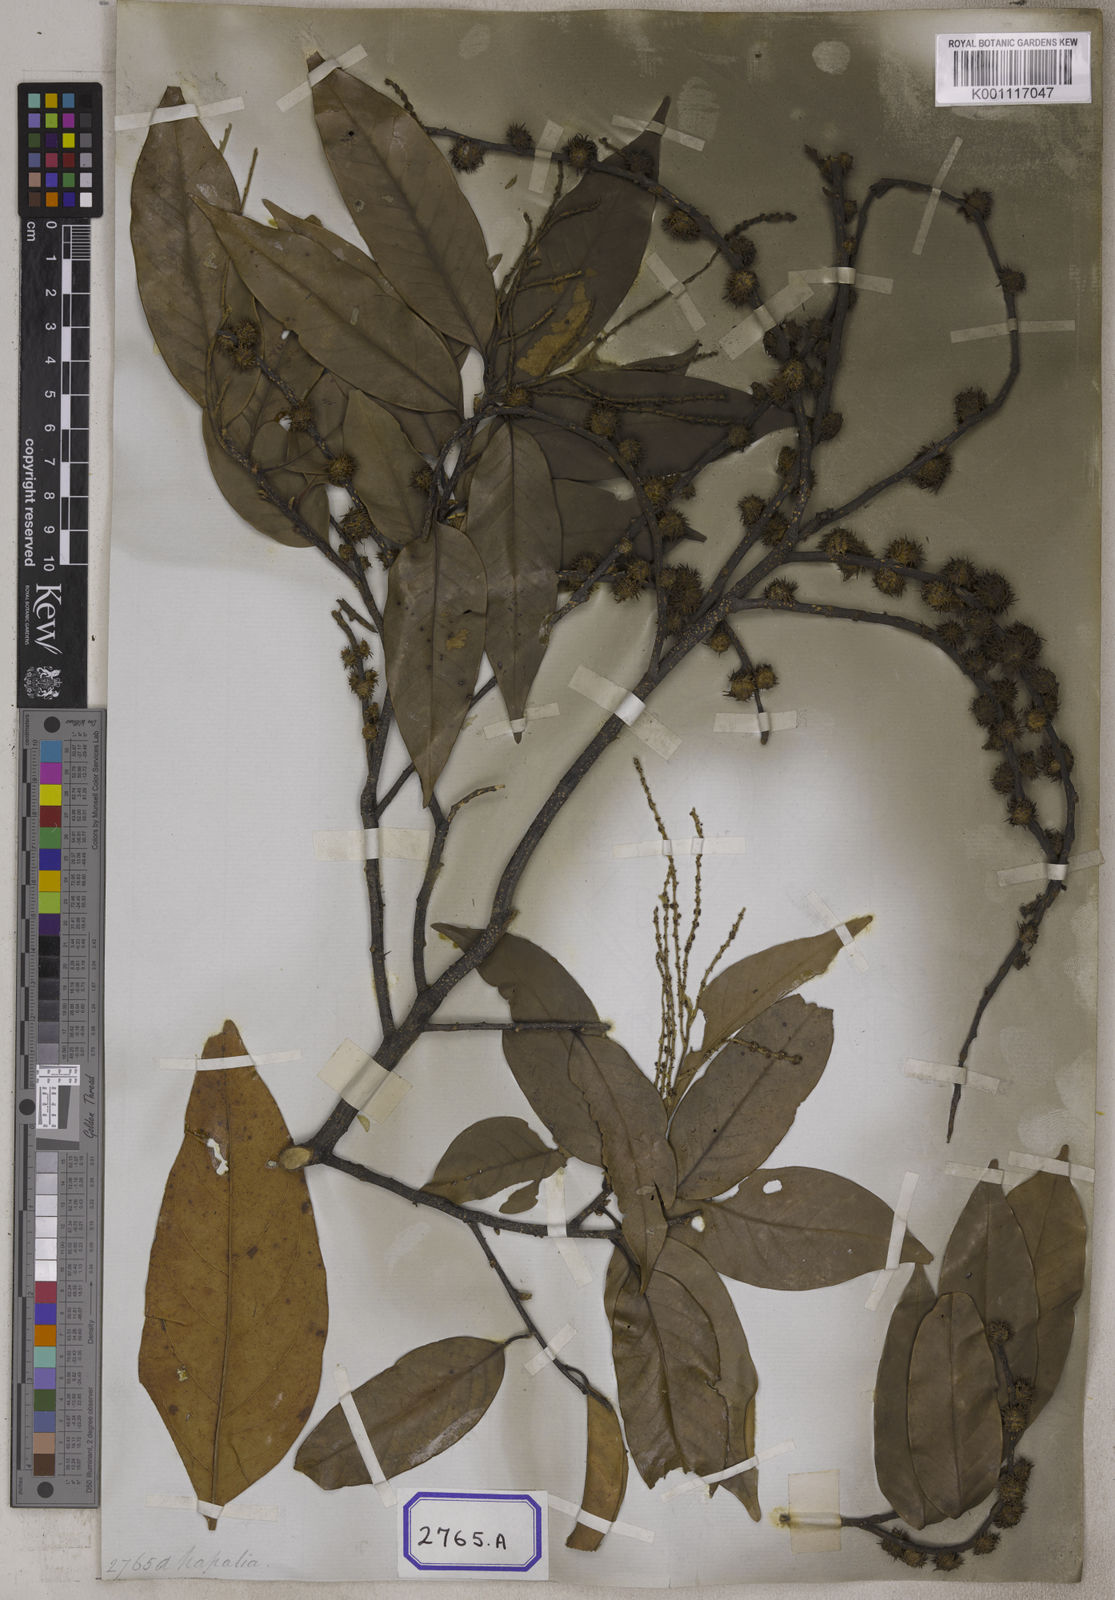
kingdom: Plantae
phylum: Tracheophyta
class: Magnoliopsida
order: Fagales
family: Fagaceae
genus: Castanopsis
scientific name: Castanopsis tribuloides
